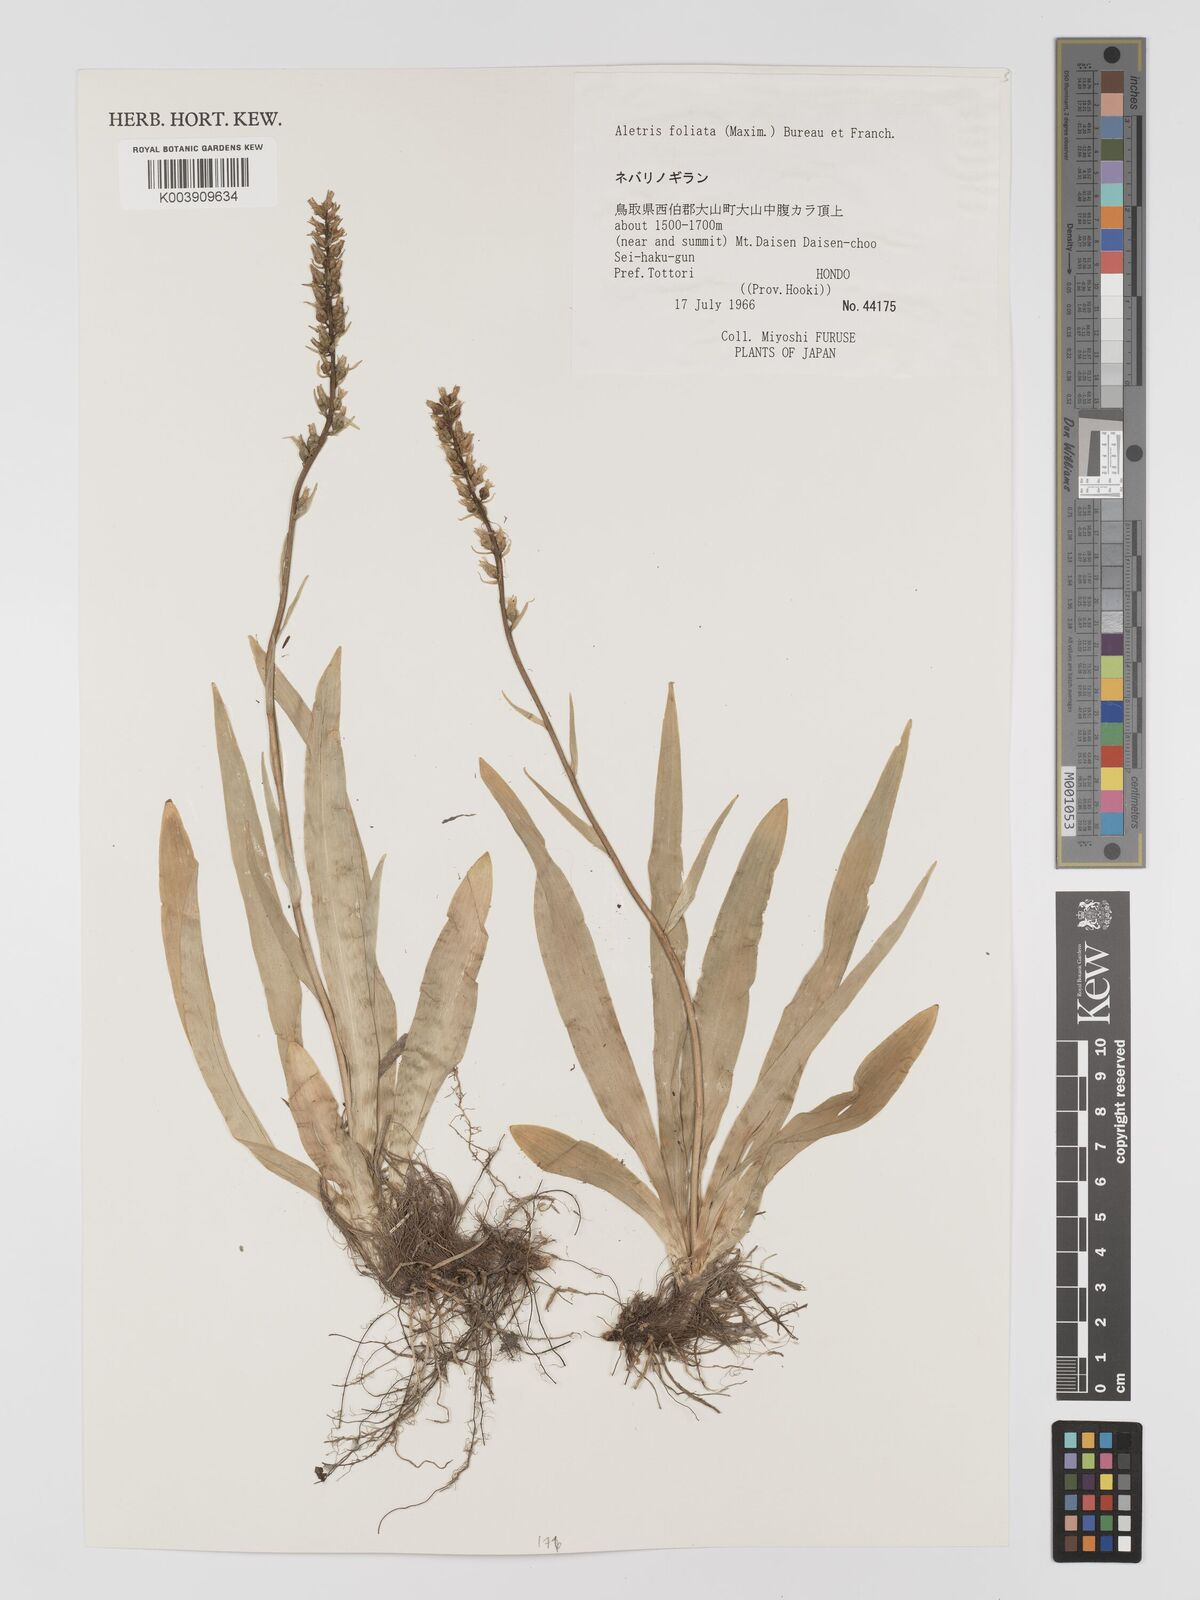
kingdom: Plantae
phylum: Tracheophyta
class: Liliopsida
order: Dioscoreales
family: Nartheciaceae
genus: Aletris
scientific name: Aletris foliata
